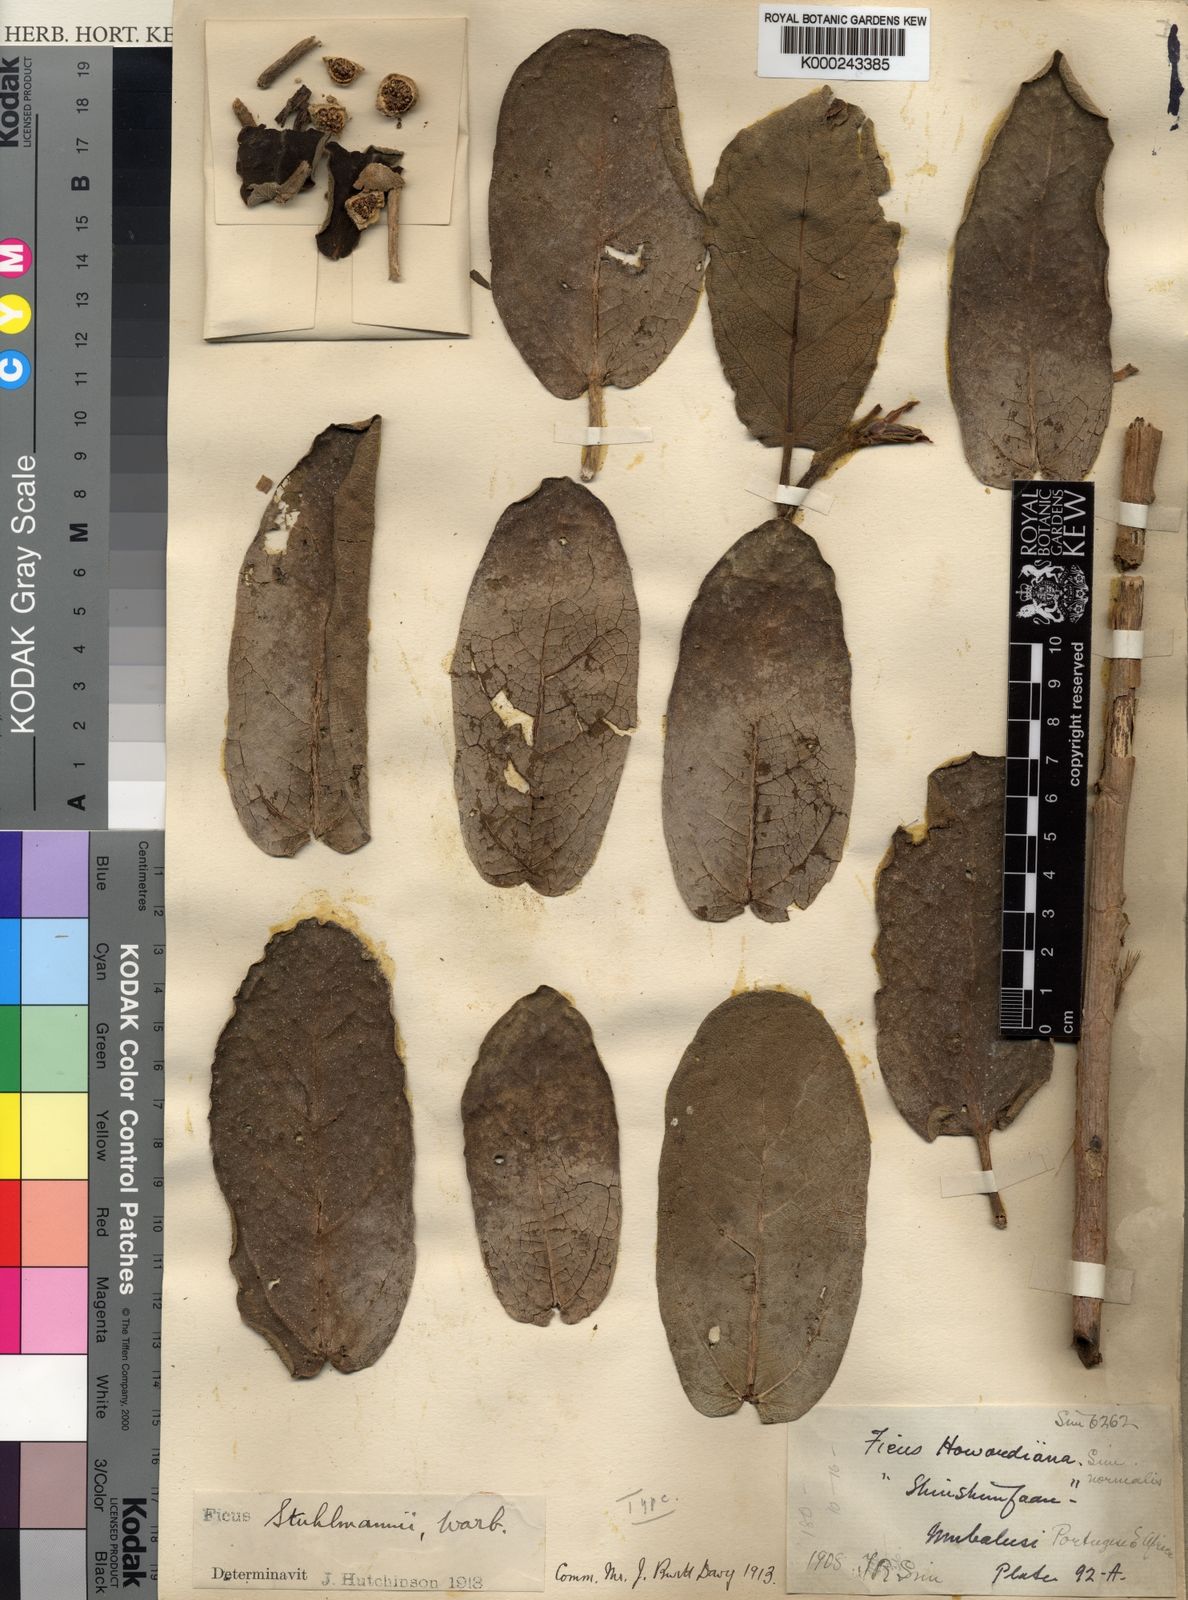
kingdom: Plantae
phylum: Tracheophyta
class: Magnoliopsida
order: Rosales
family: Moraceae
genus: Ficus
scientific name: Ficus stuhlmannii
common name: Lowveld fig
